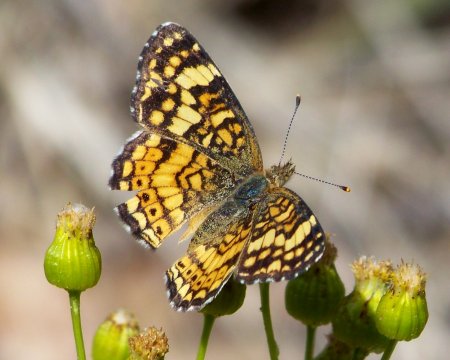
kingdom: Animalia
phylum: Arthropoda
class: Insecta
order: Lepidoptera
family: Nymphalidae
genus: Eresia
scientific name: Eresia aveyrona
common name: Mylitta Crescent
